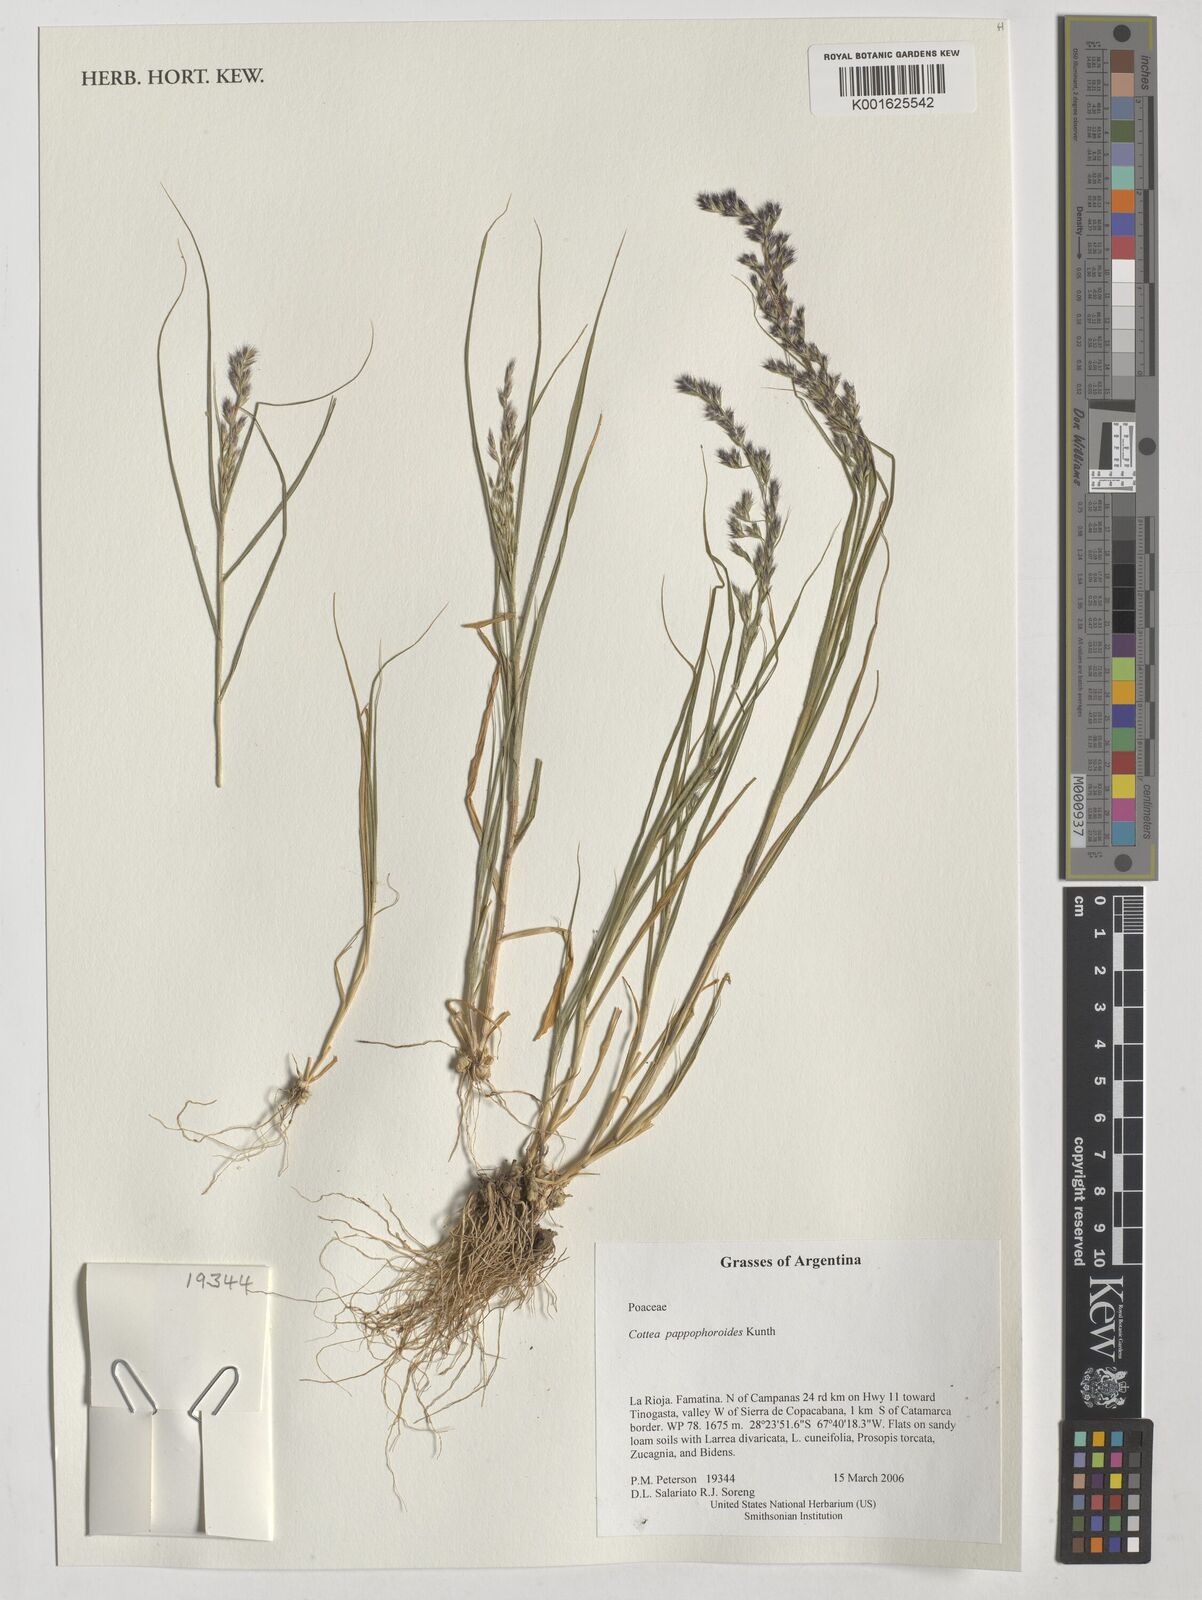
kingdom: Plantae
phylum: Tracheophyta
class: Liliopsida
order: Poales
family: Poaceae
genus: Cottea
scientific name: Cottea pappophoroides
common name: Cotta grass
